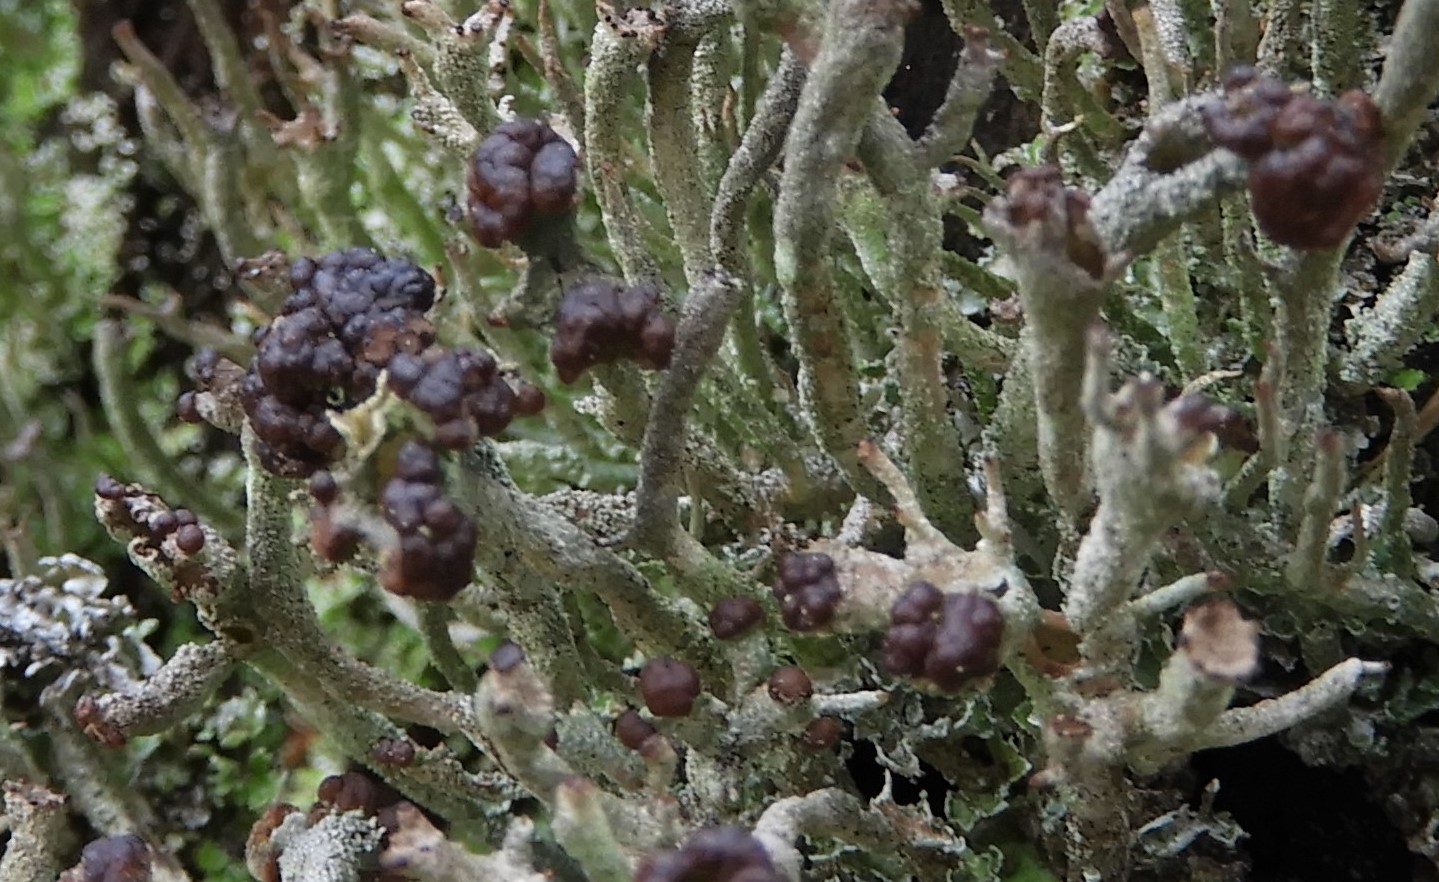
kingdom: Fungi
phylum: Ascomycota
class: Lecanoromycetes
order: Lecanorales
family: Cladoniaceae
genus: Cladonia
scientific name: Cladonia ramulosa
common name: kliddet bægerlav
